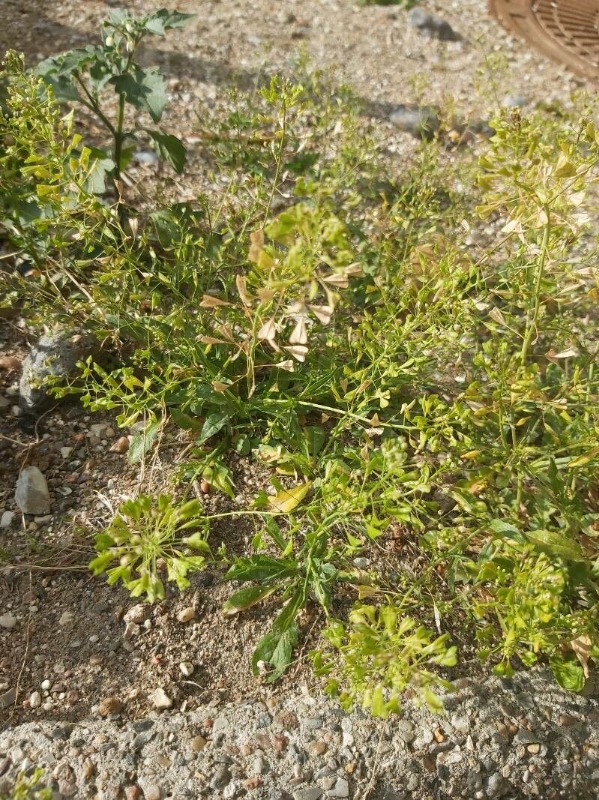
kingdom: Plantae
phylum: Tracheophyta
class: Magnoliopsida
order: Brassicales
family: Brassicaceae
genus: Capsella
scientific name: Capsella bursa-pastoris
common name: Hyrdetaske
